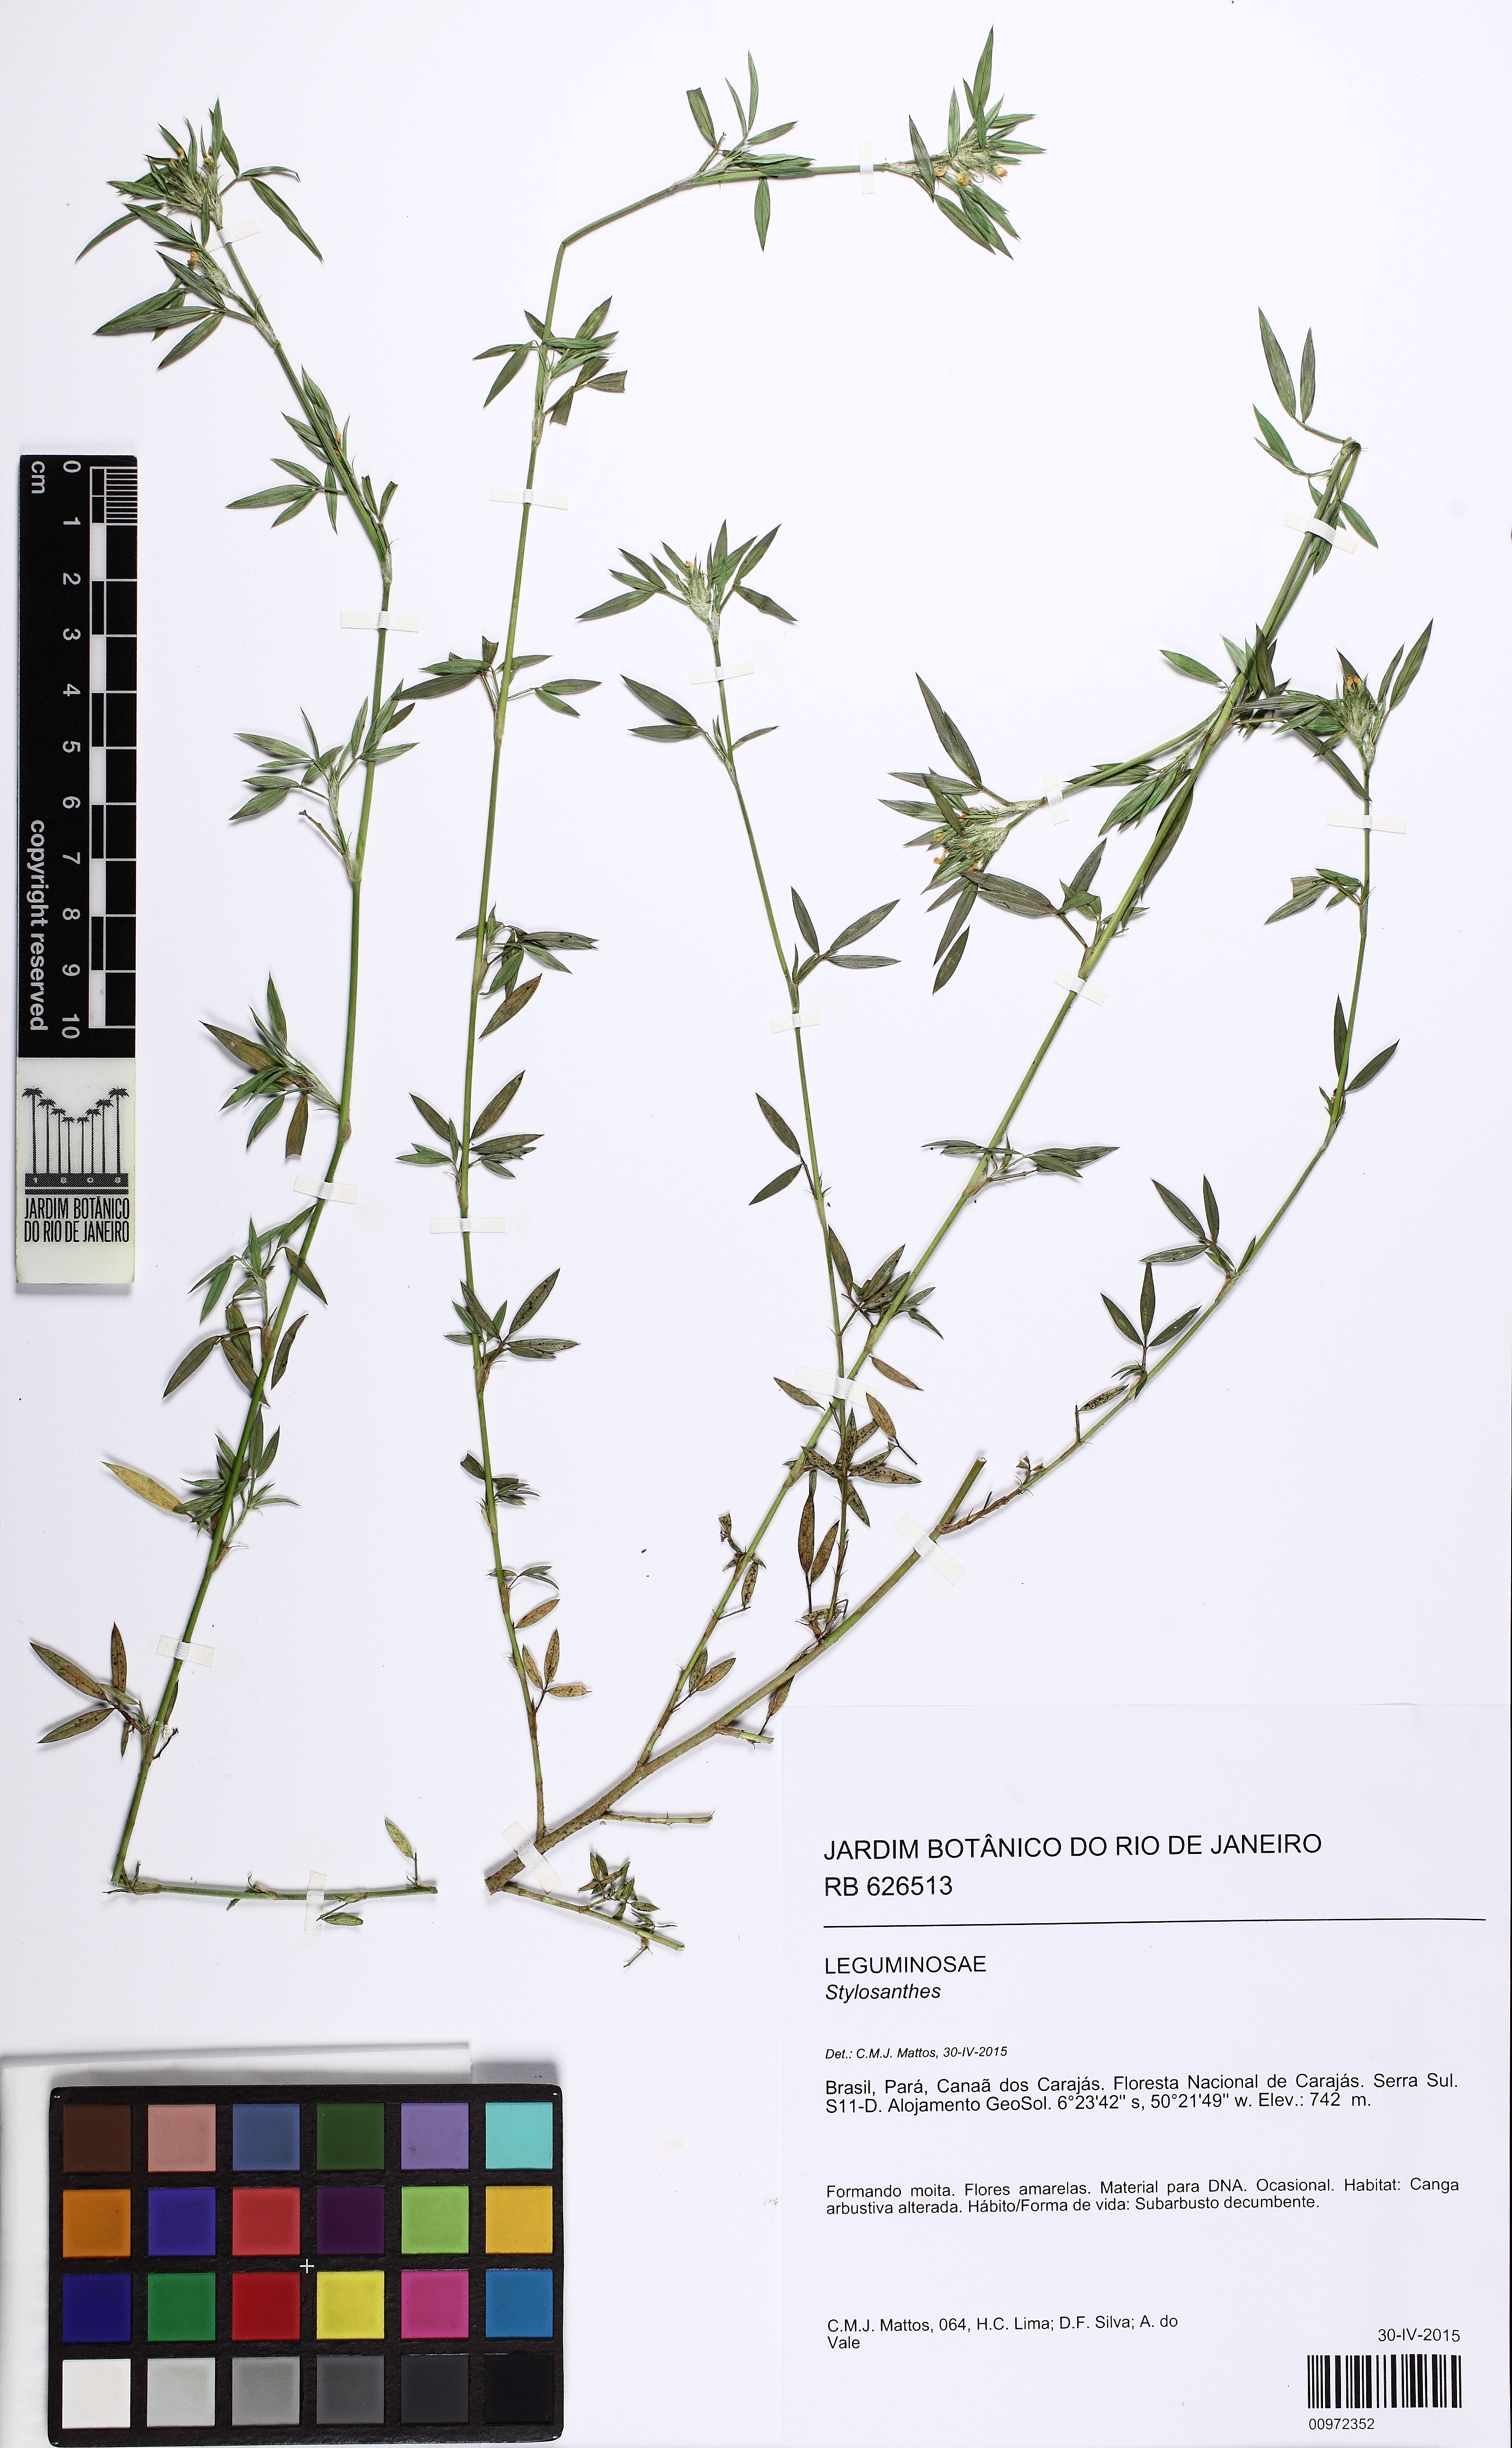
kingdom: Plantae
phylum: Tracheophyta
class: Magnoliopsida
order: Fabales
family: Fabaceae
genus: Stylosanthes
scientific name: Stylosanthes humilis
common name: Townsville stylo
